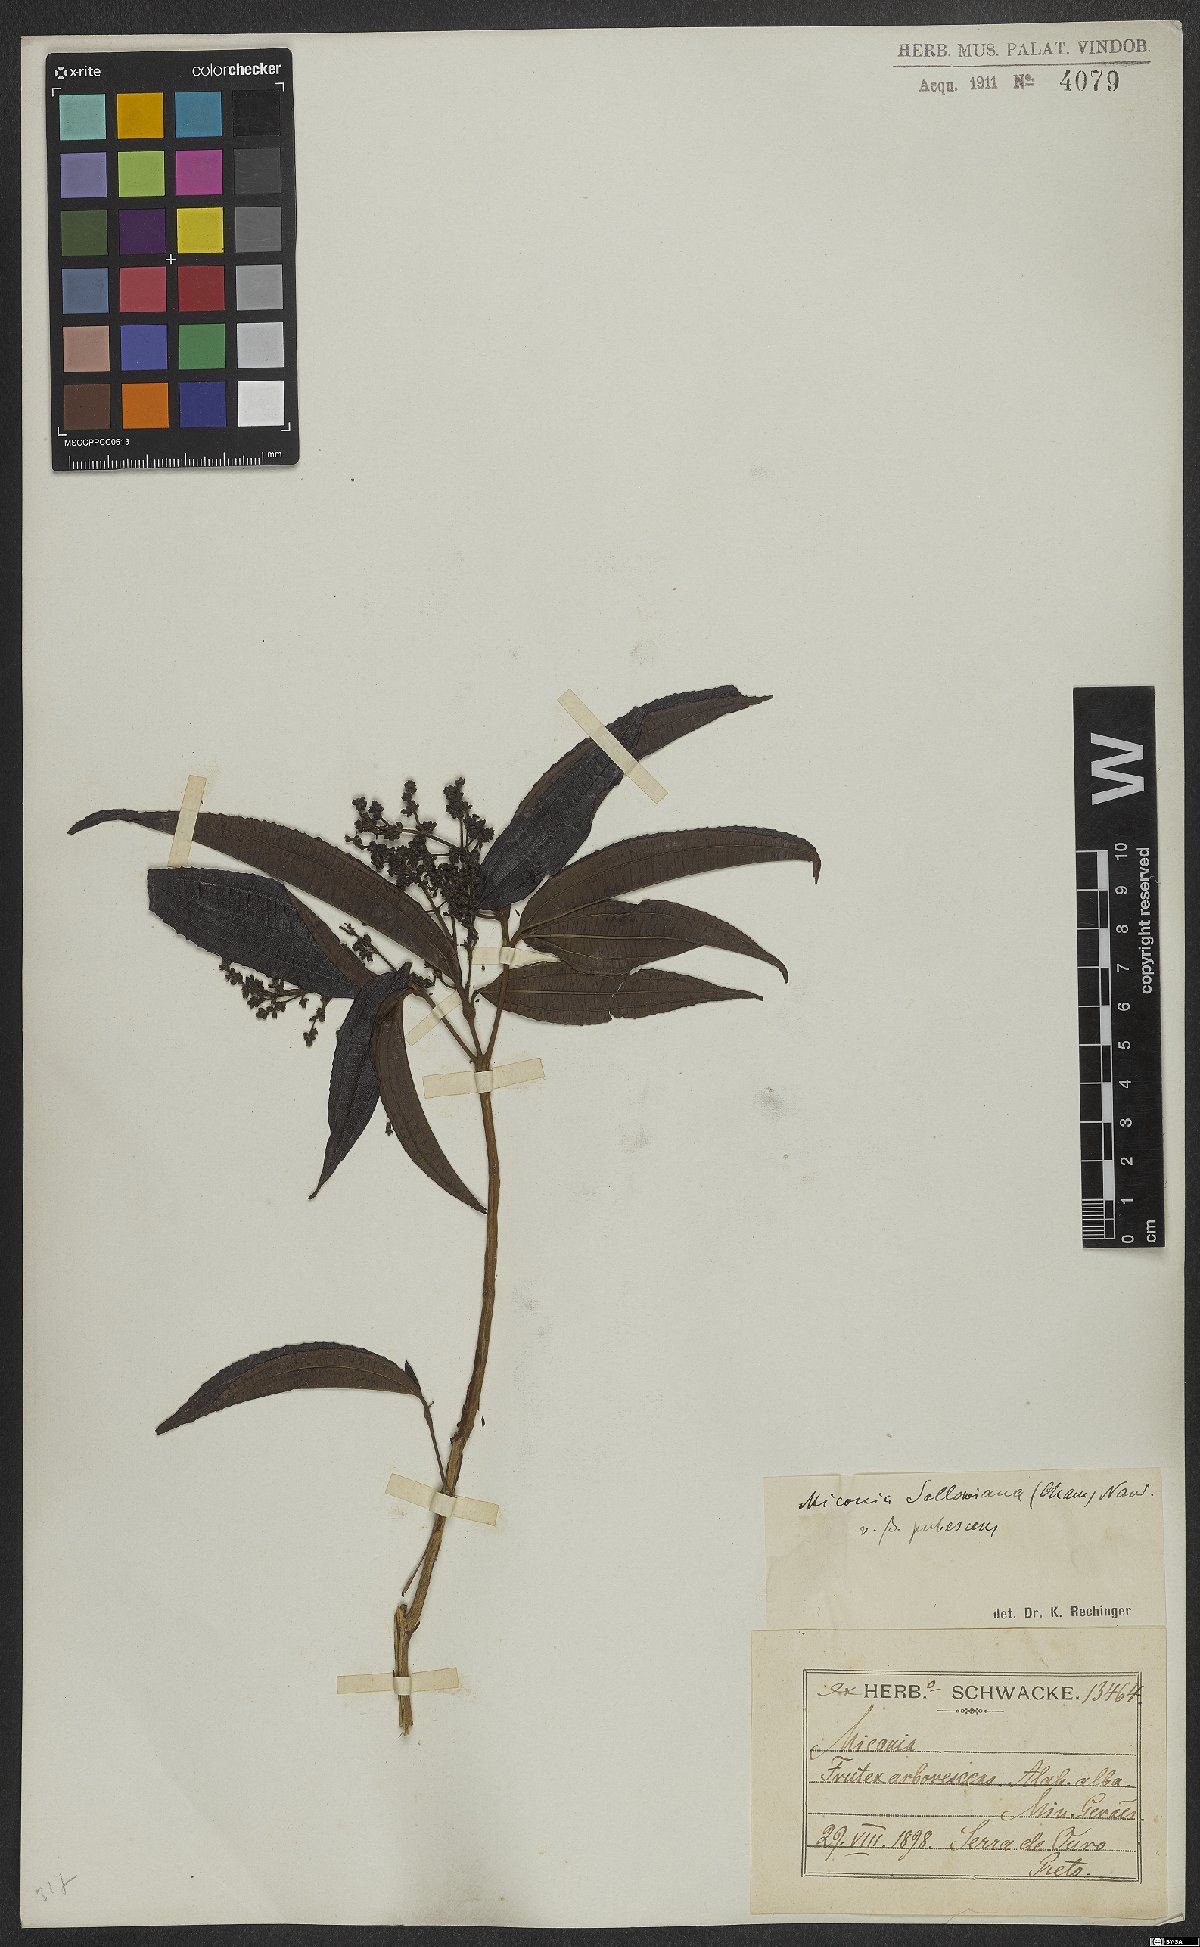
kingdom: Plantae
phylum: Tracheophyta
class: Magnoliopsida
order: Myrtales
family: Melastomataceae
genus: Miconia
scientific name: Miconia sellowiana
